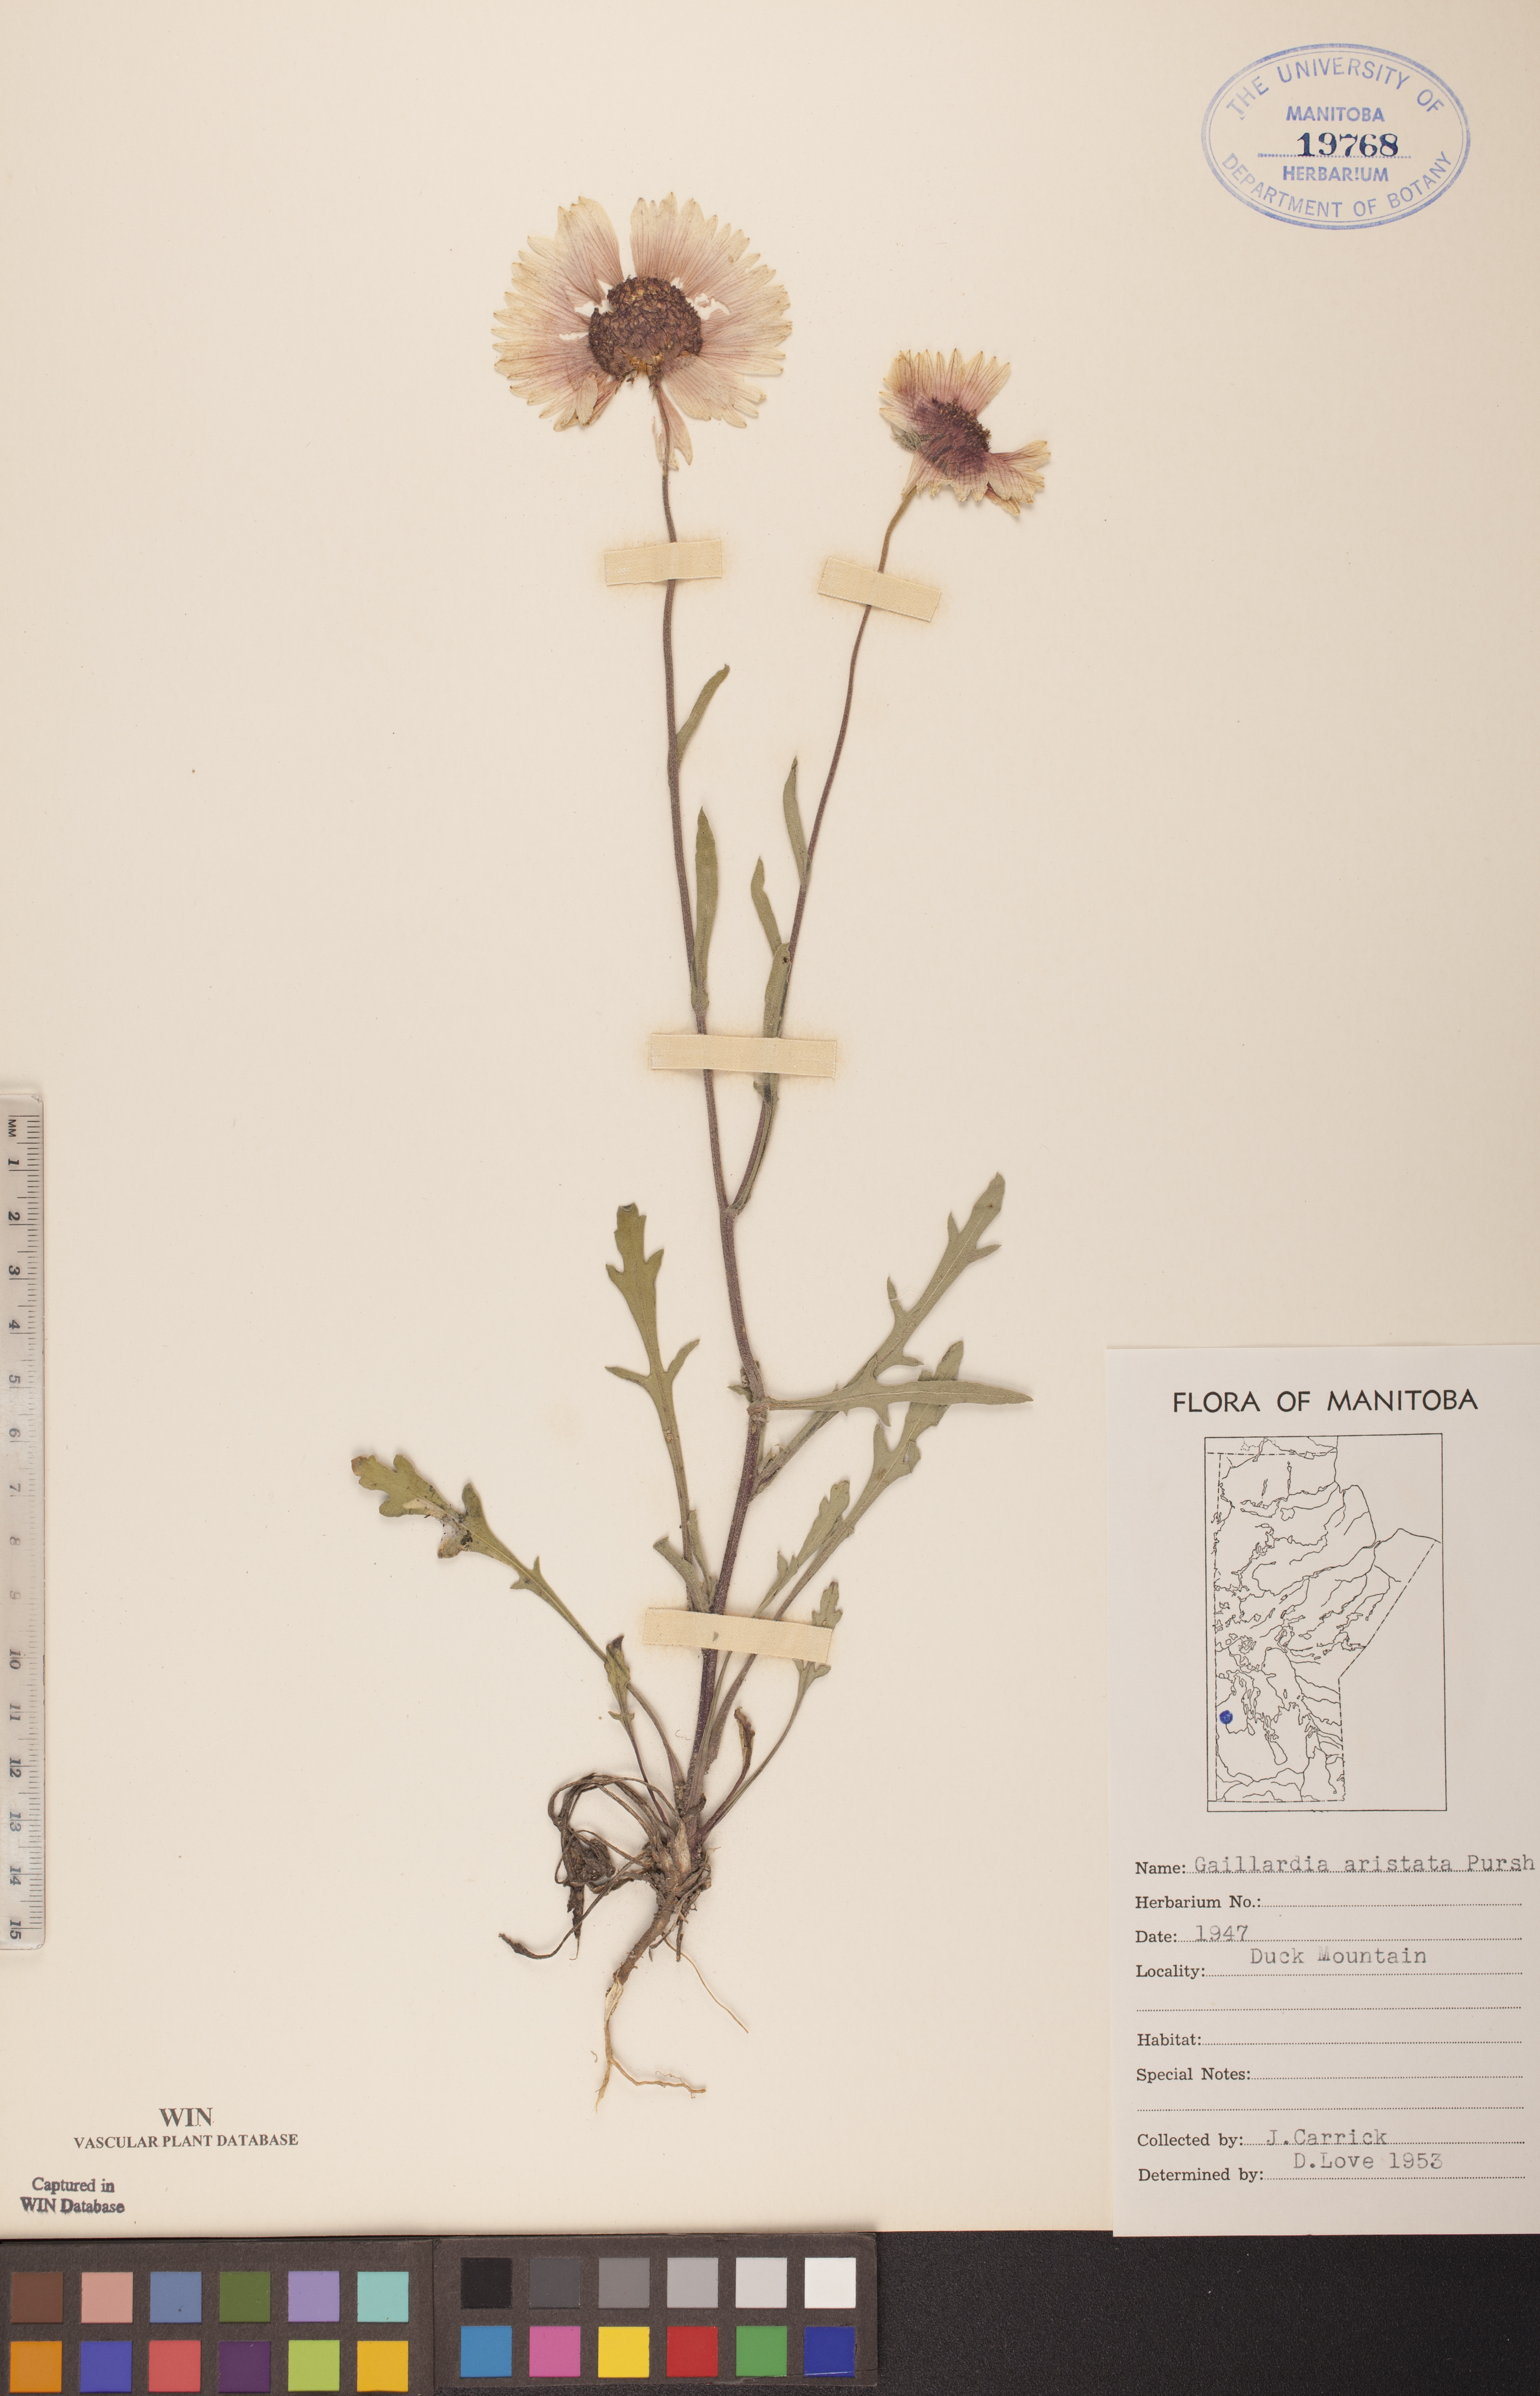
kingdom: Plantae
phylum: Tracheophyta
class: Magnoliopsida
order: Asterales
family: Asteraceae
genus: Gaillardia
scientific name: Gaillardia aristata
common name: Blanket-flower
